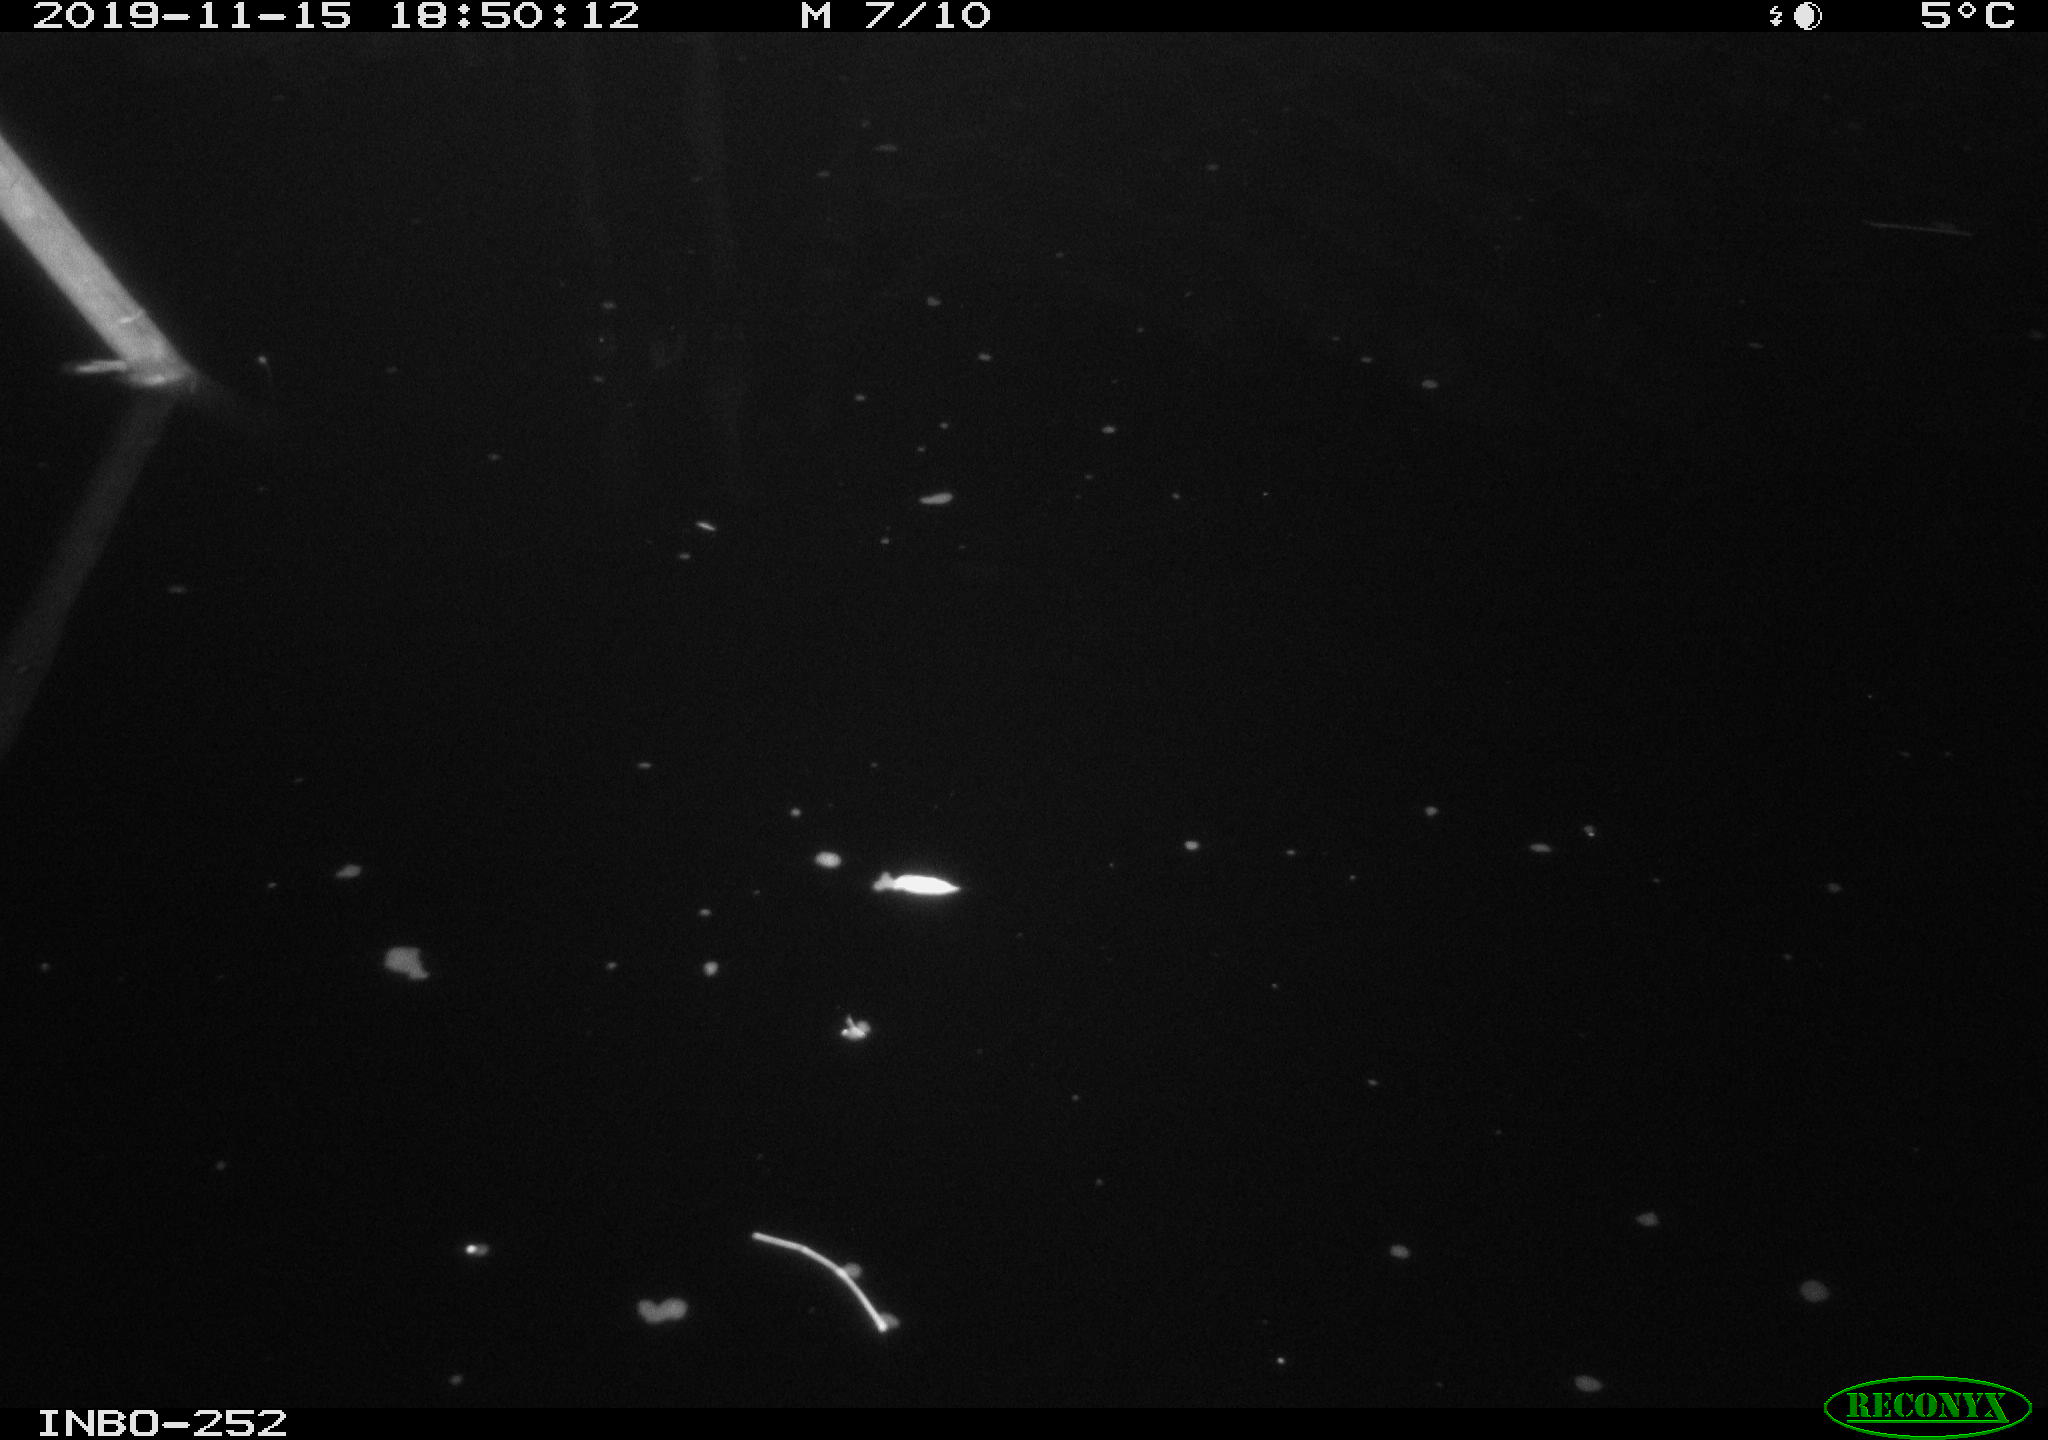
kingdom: Animalia
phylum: Chordata
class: Aves
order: Anseriformes
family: Anatidae
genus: Anas
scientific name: Anas platyrhynchos
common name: Mallard
